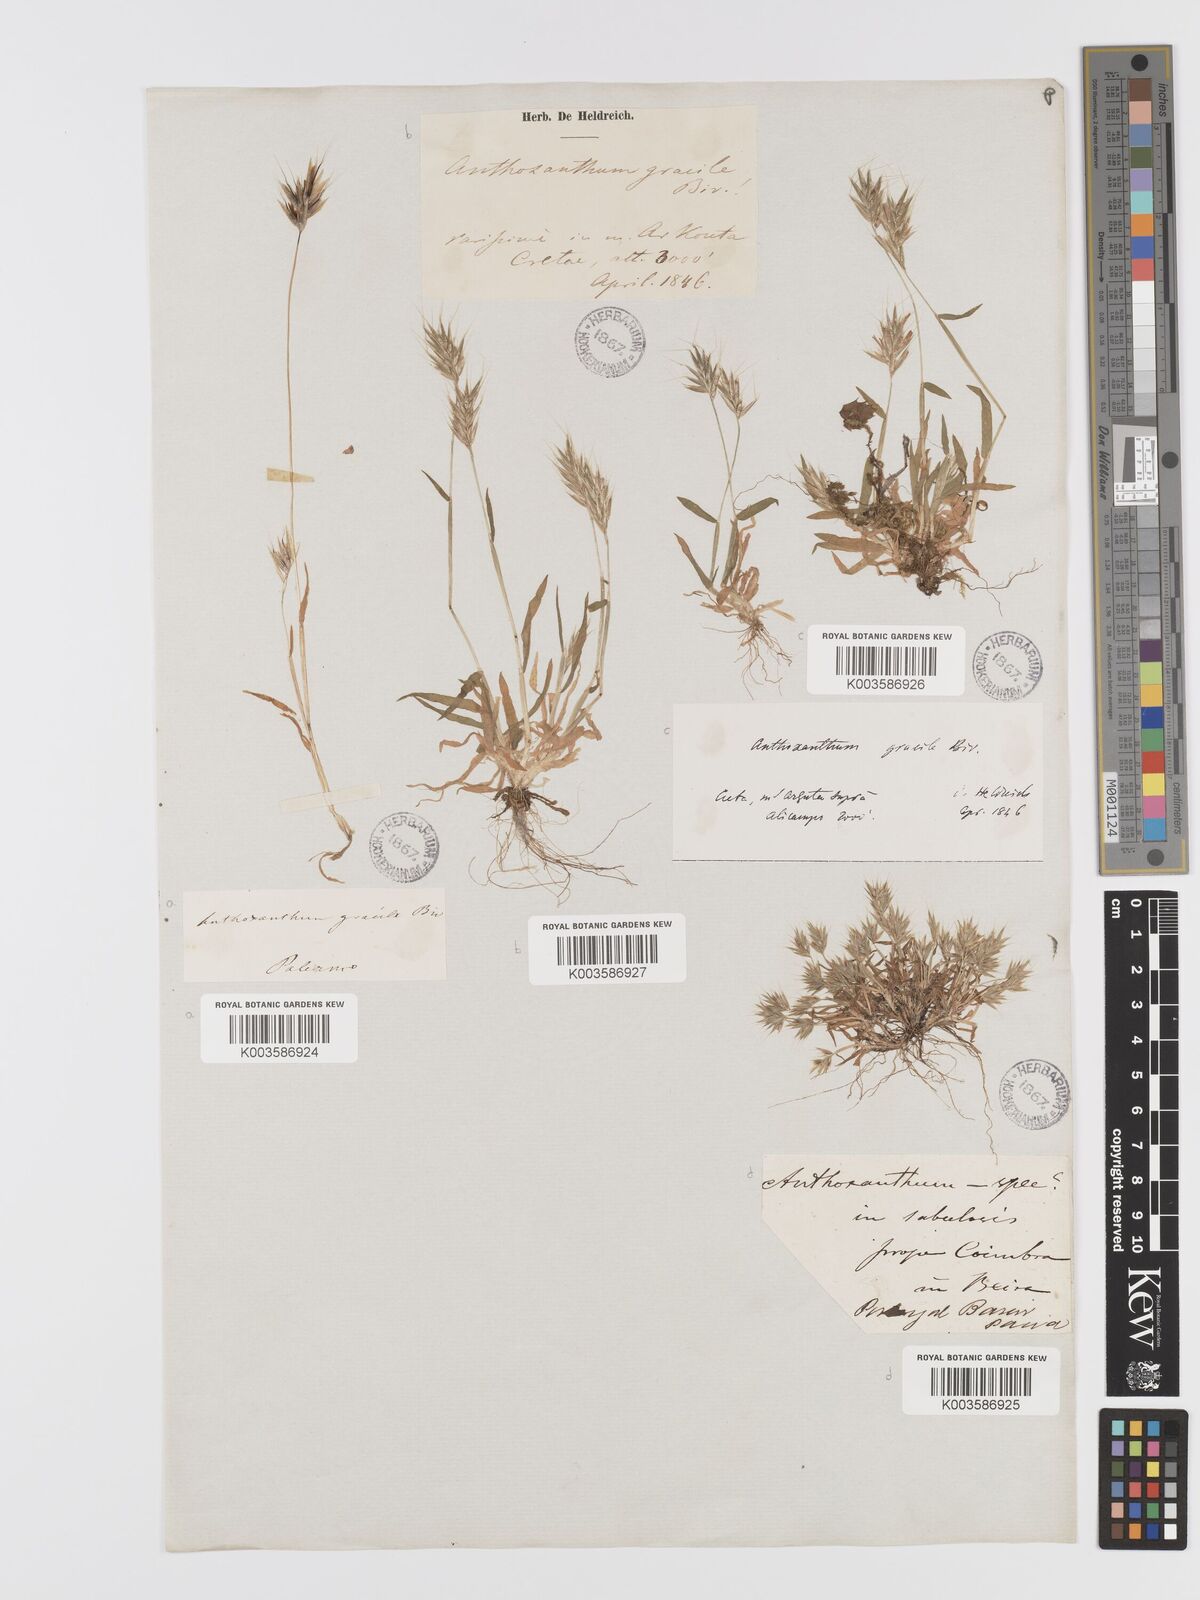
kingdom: Plantae
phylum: Tracheophyta
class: Liliopsida
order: Poales
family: Poaceae
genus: Anthoxanthum
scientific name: Anthoxanthum gracile
